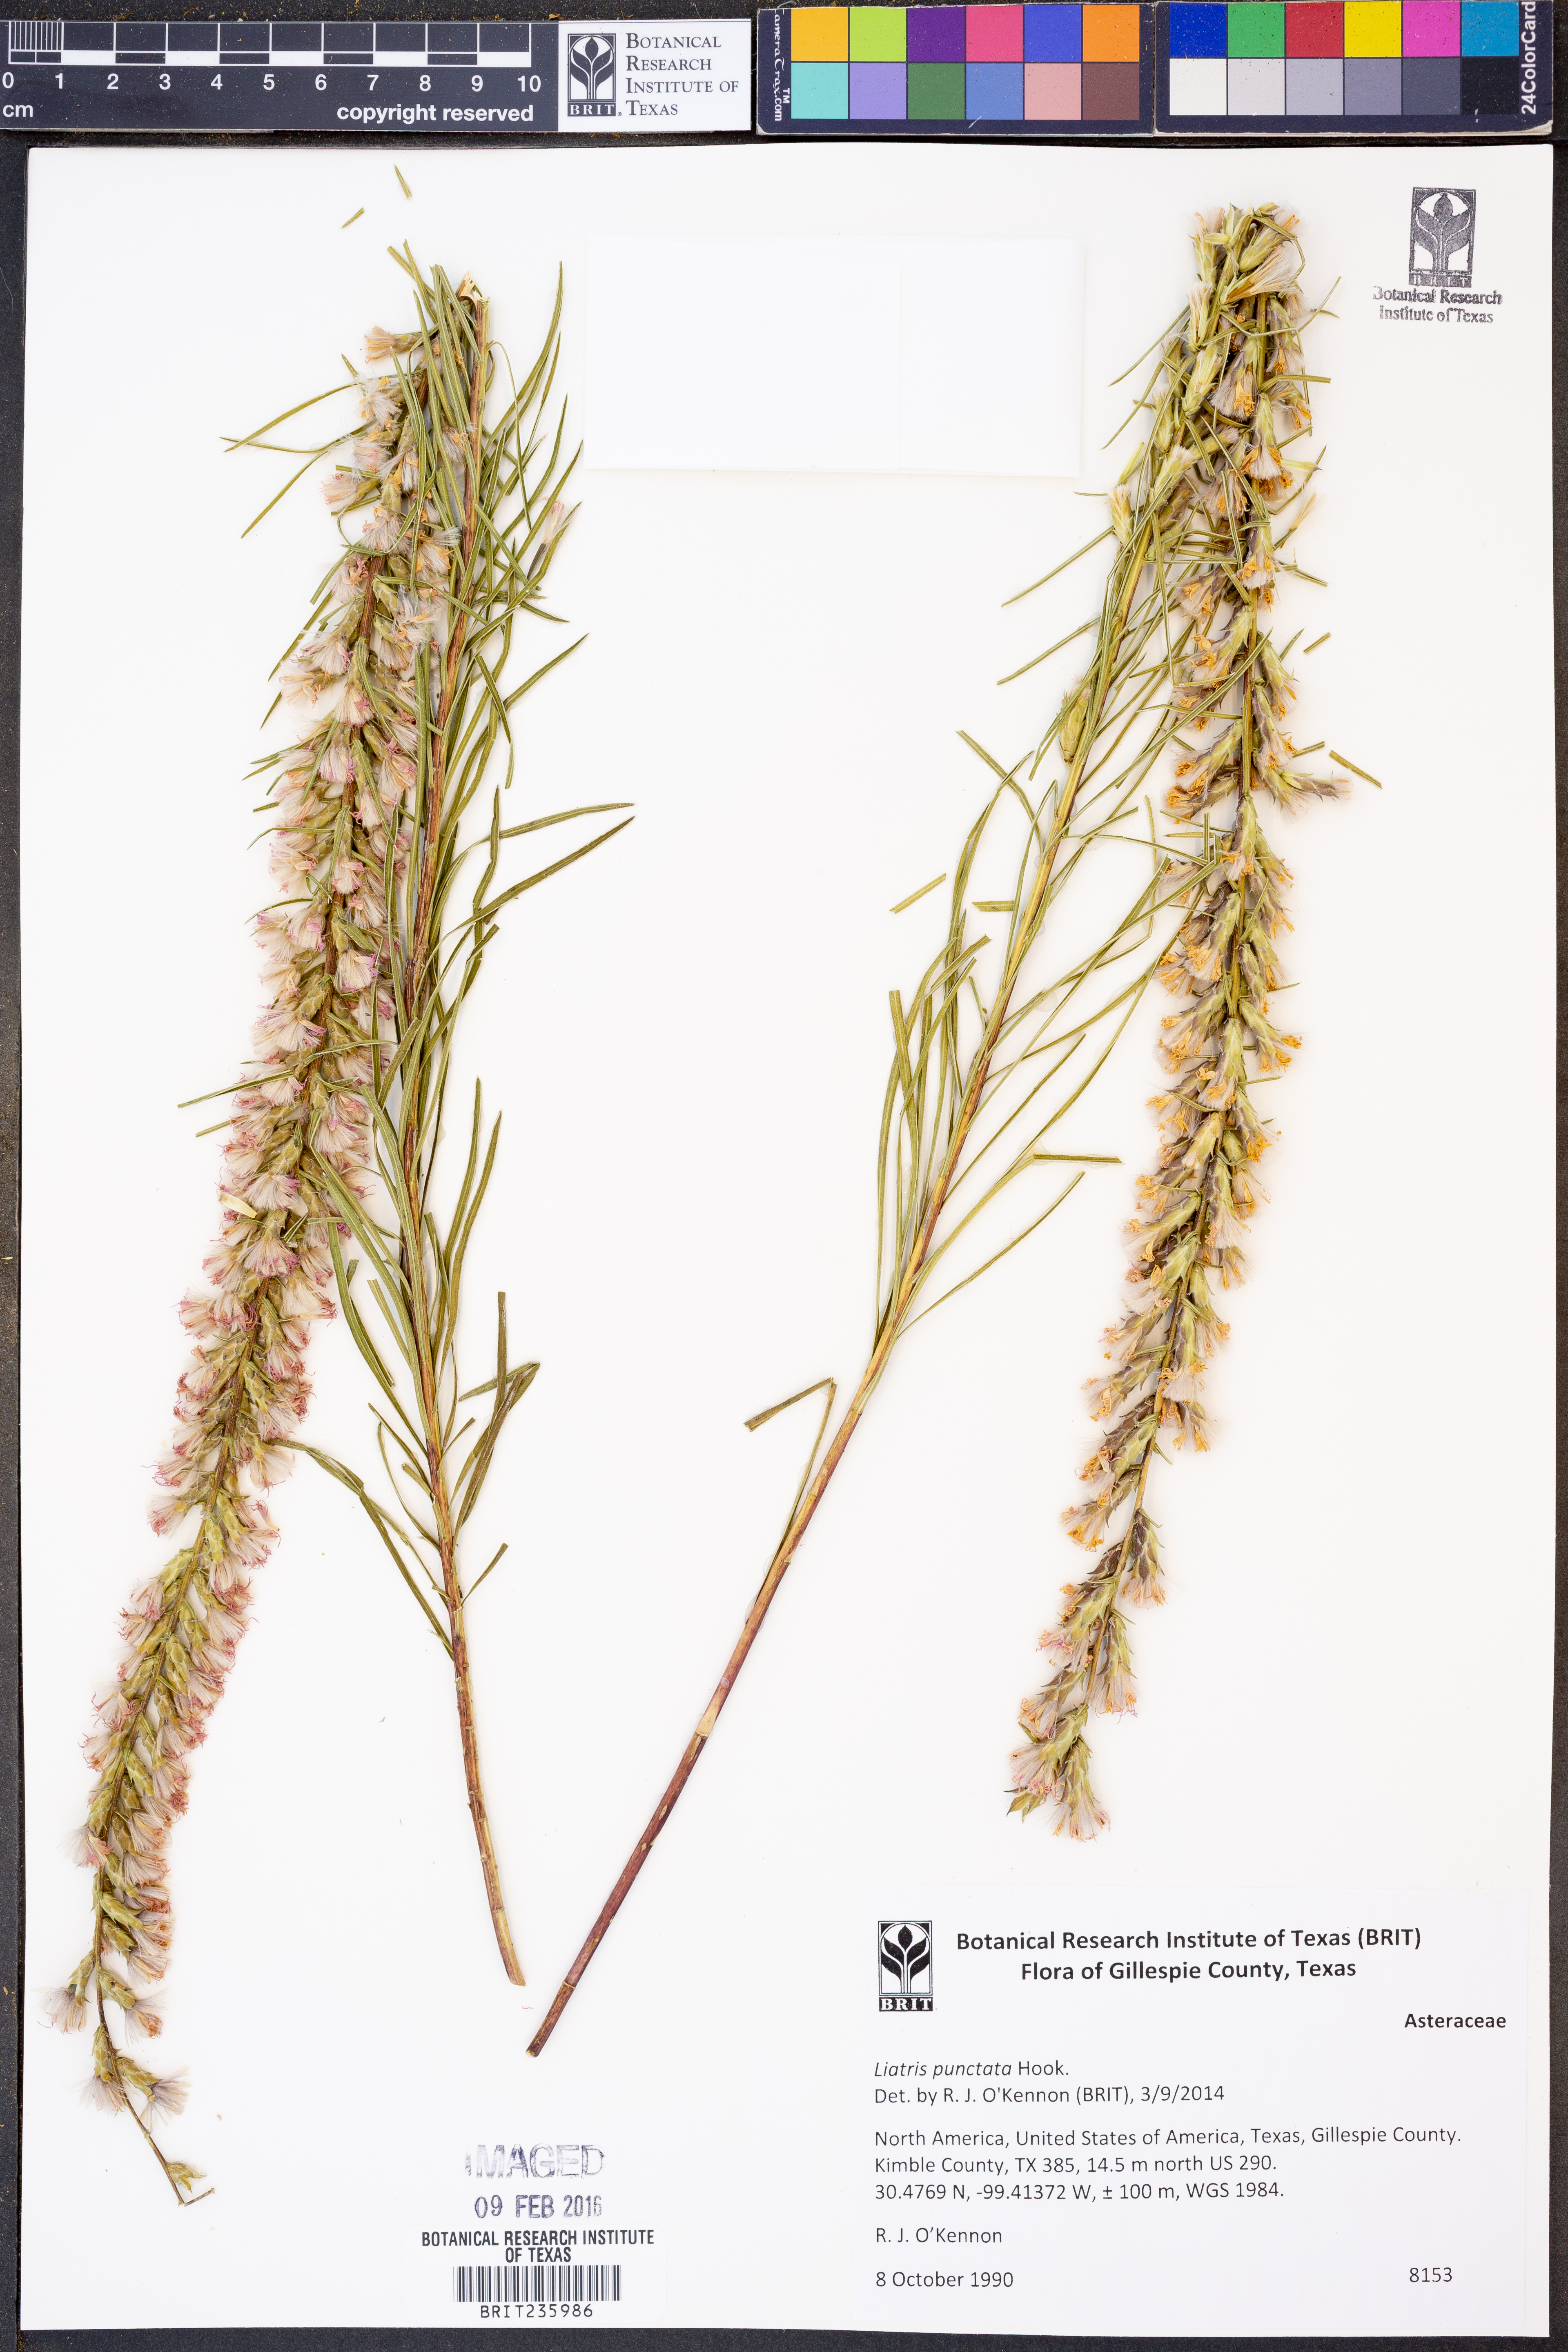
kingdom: Plantae
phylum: Tracheophyta
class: Magnoliopsida
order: Asterales
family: Asteraceae
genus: Liatris
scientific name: Liatris punctata
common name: Dotted gayfeather
